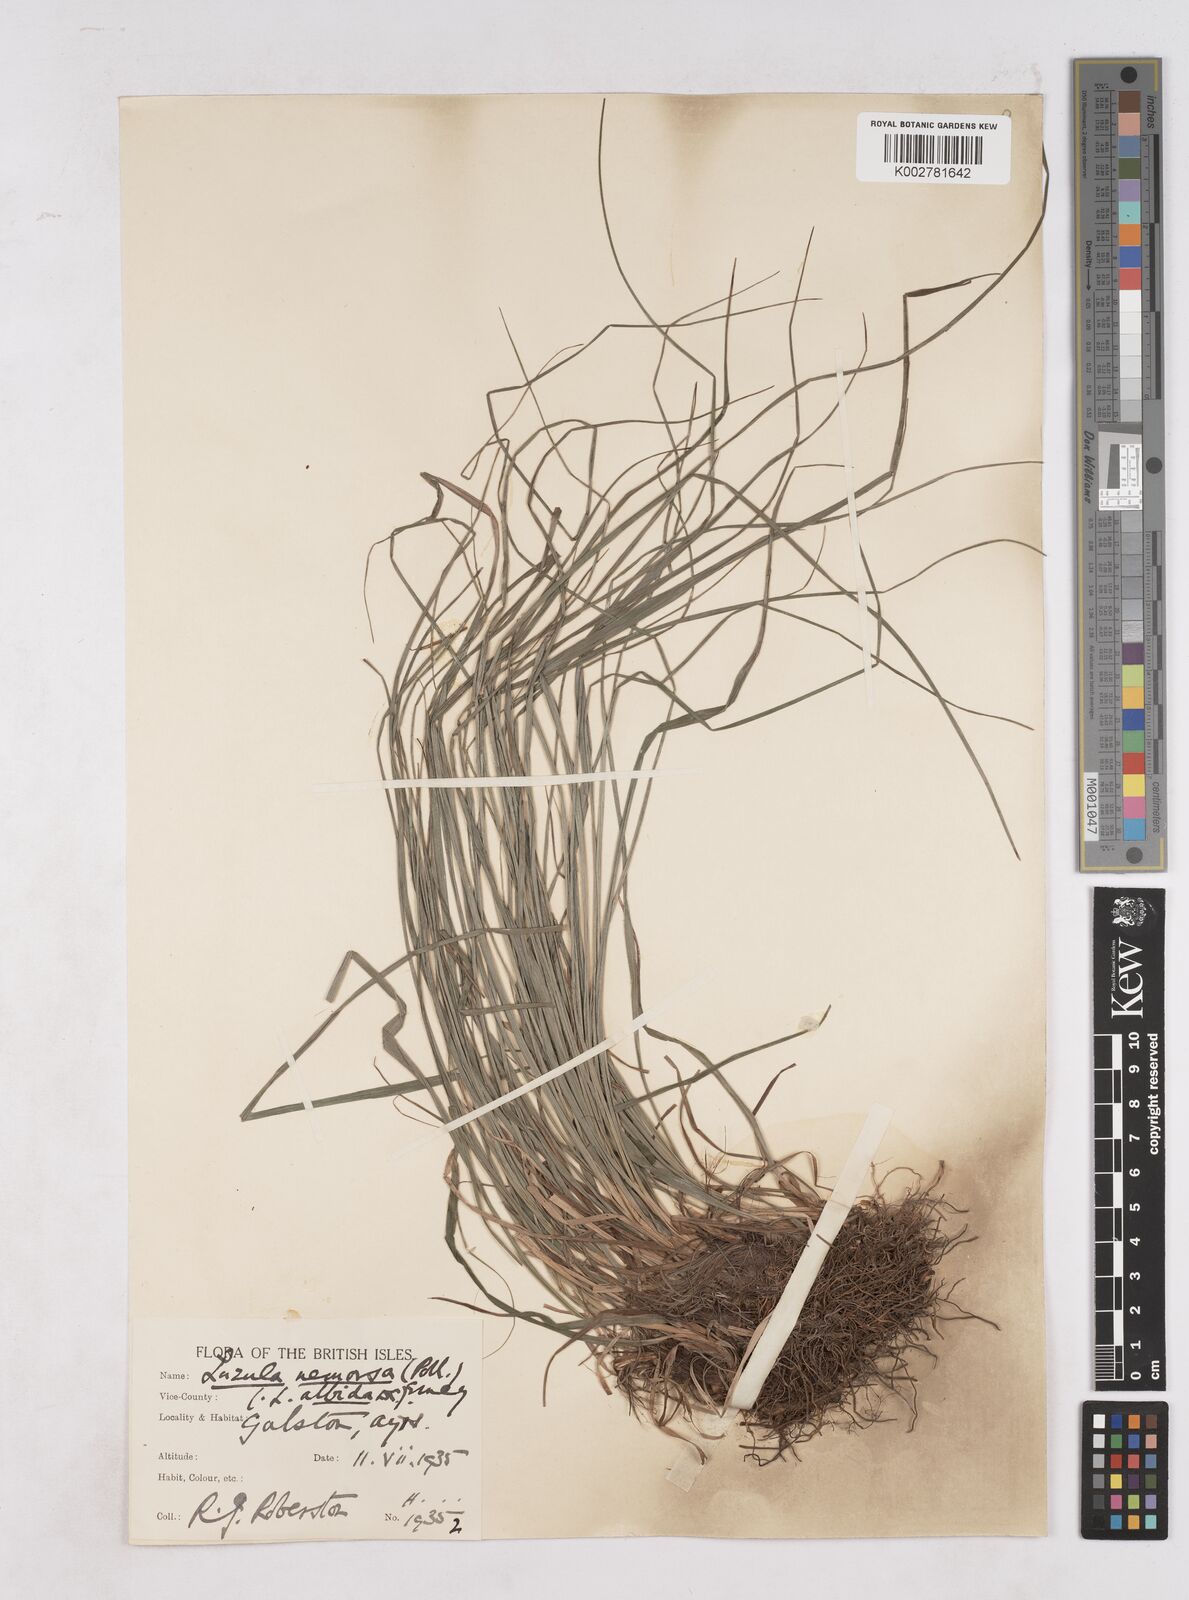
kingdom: Plantae
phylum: Tracheophyta
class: Liliopsida
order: Poales
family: Juncaceae
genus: Luzula
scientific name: Luzula luzuloides
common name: White wood-rush
